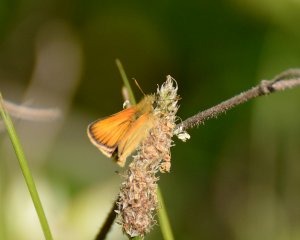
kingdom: Animalia
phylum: Arthropoda
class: Insecta
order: Lepidoptera
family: Hesperiidae
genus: Thymelicus
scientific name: Thymelicus lineola
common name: European Skipper
